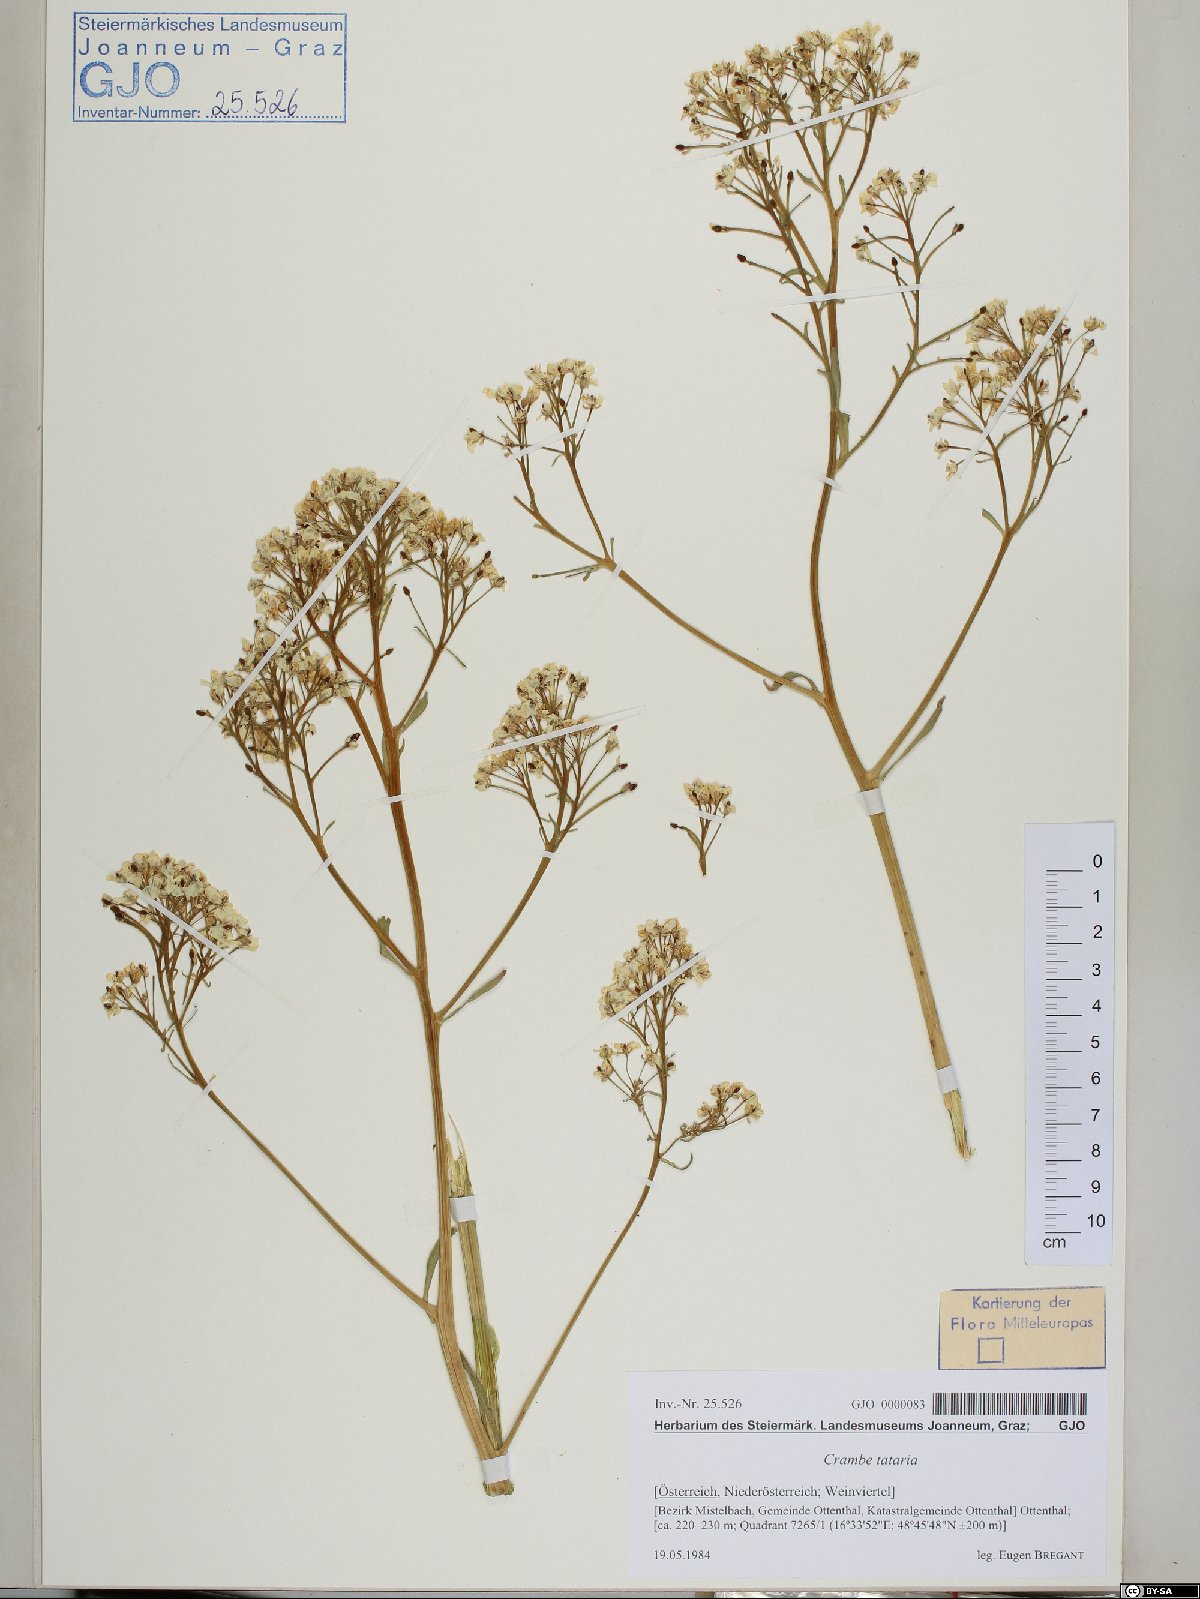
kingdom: Plantae
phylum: Tracheophyta
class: Magnoliopsida
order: Brassicales
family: Brassicaceae
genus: Crambe
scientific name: Crambe tataria
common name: Tartarian breadplant
